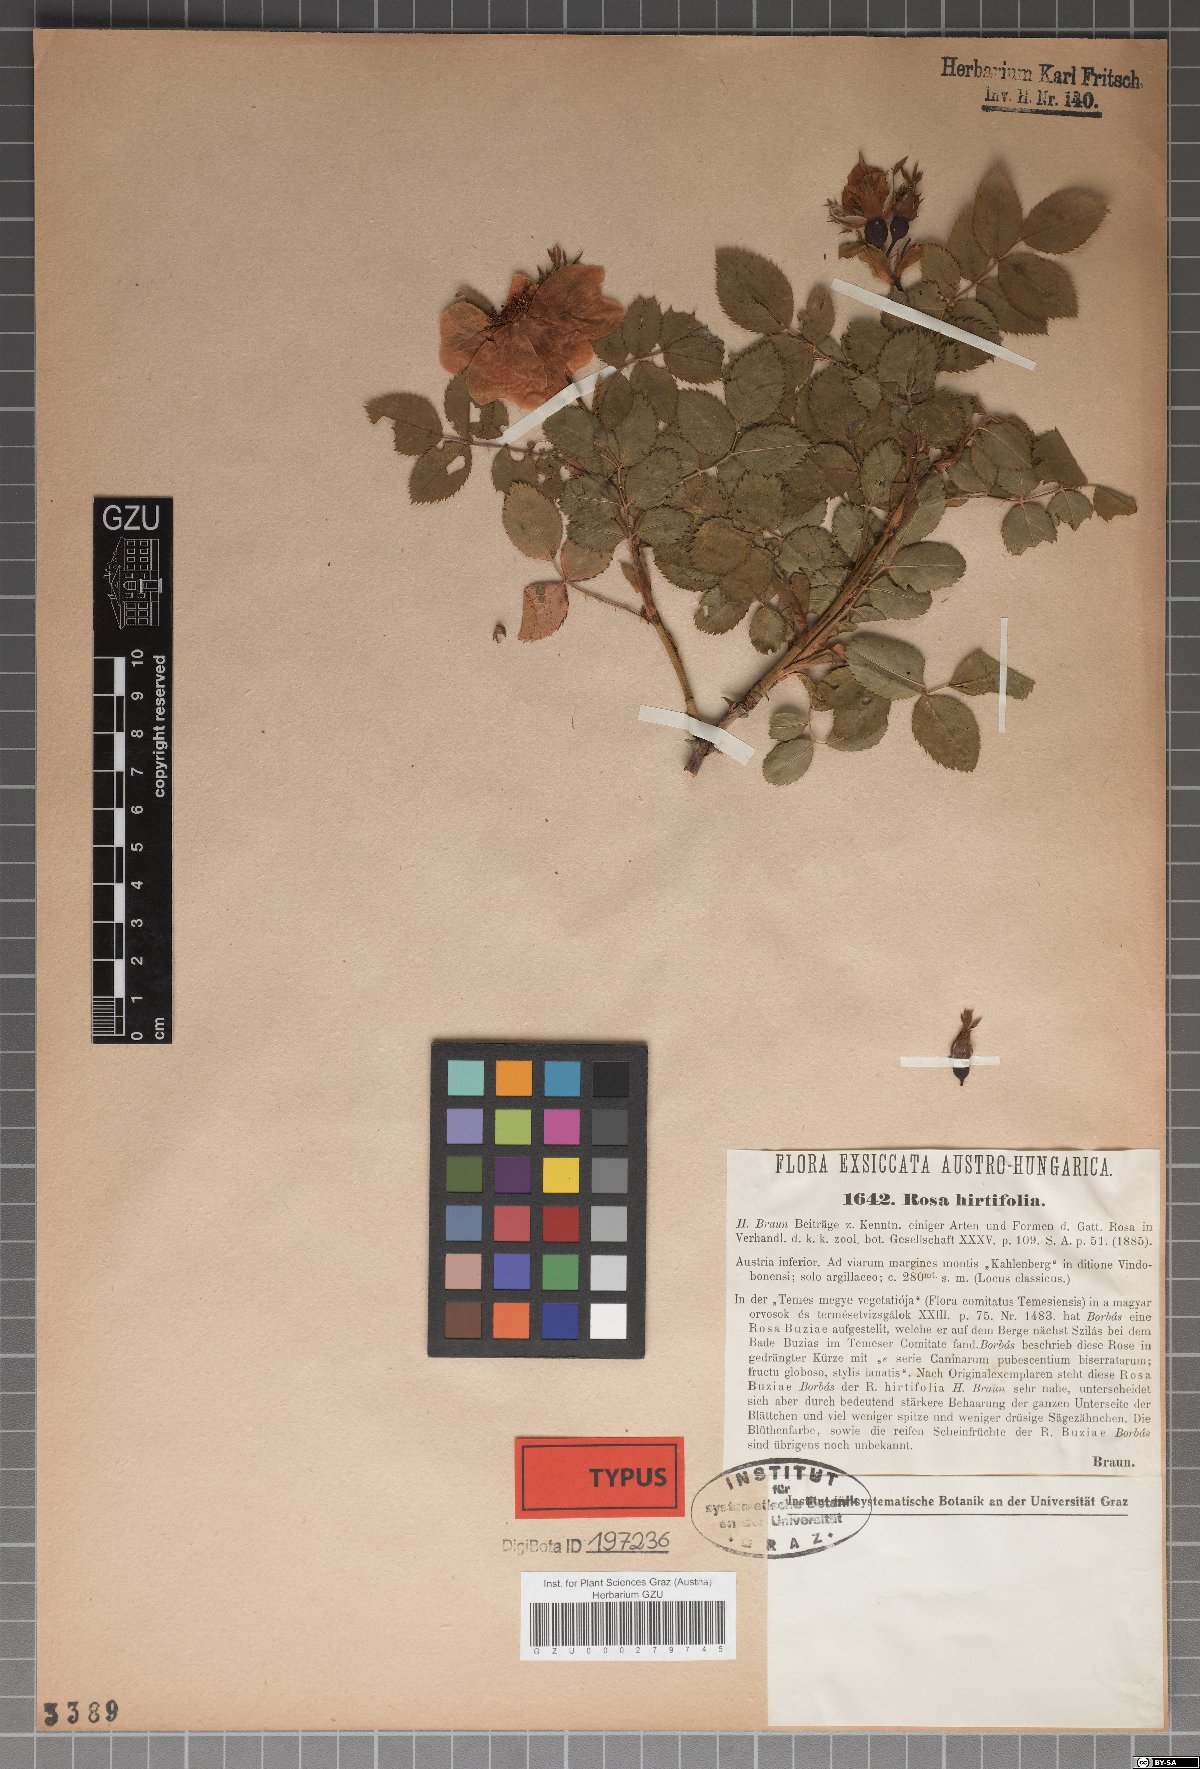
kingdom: Plantae
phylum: Tracheophyta
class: Magnoliopsida
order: Rosales
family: Rosaceae
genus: Rosa
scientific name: Rosa corymbifera
